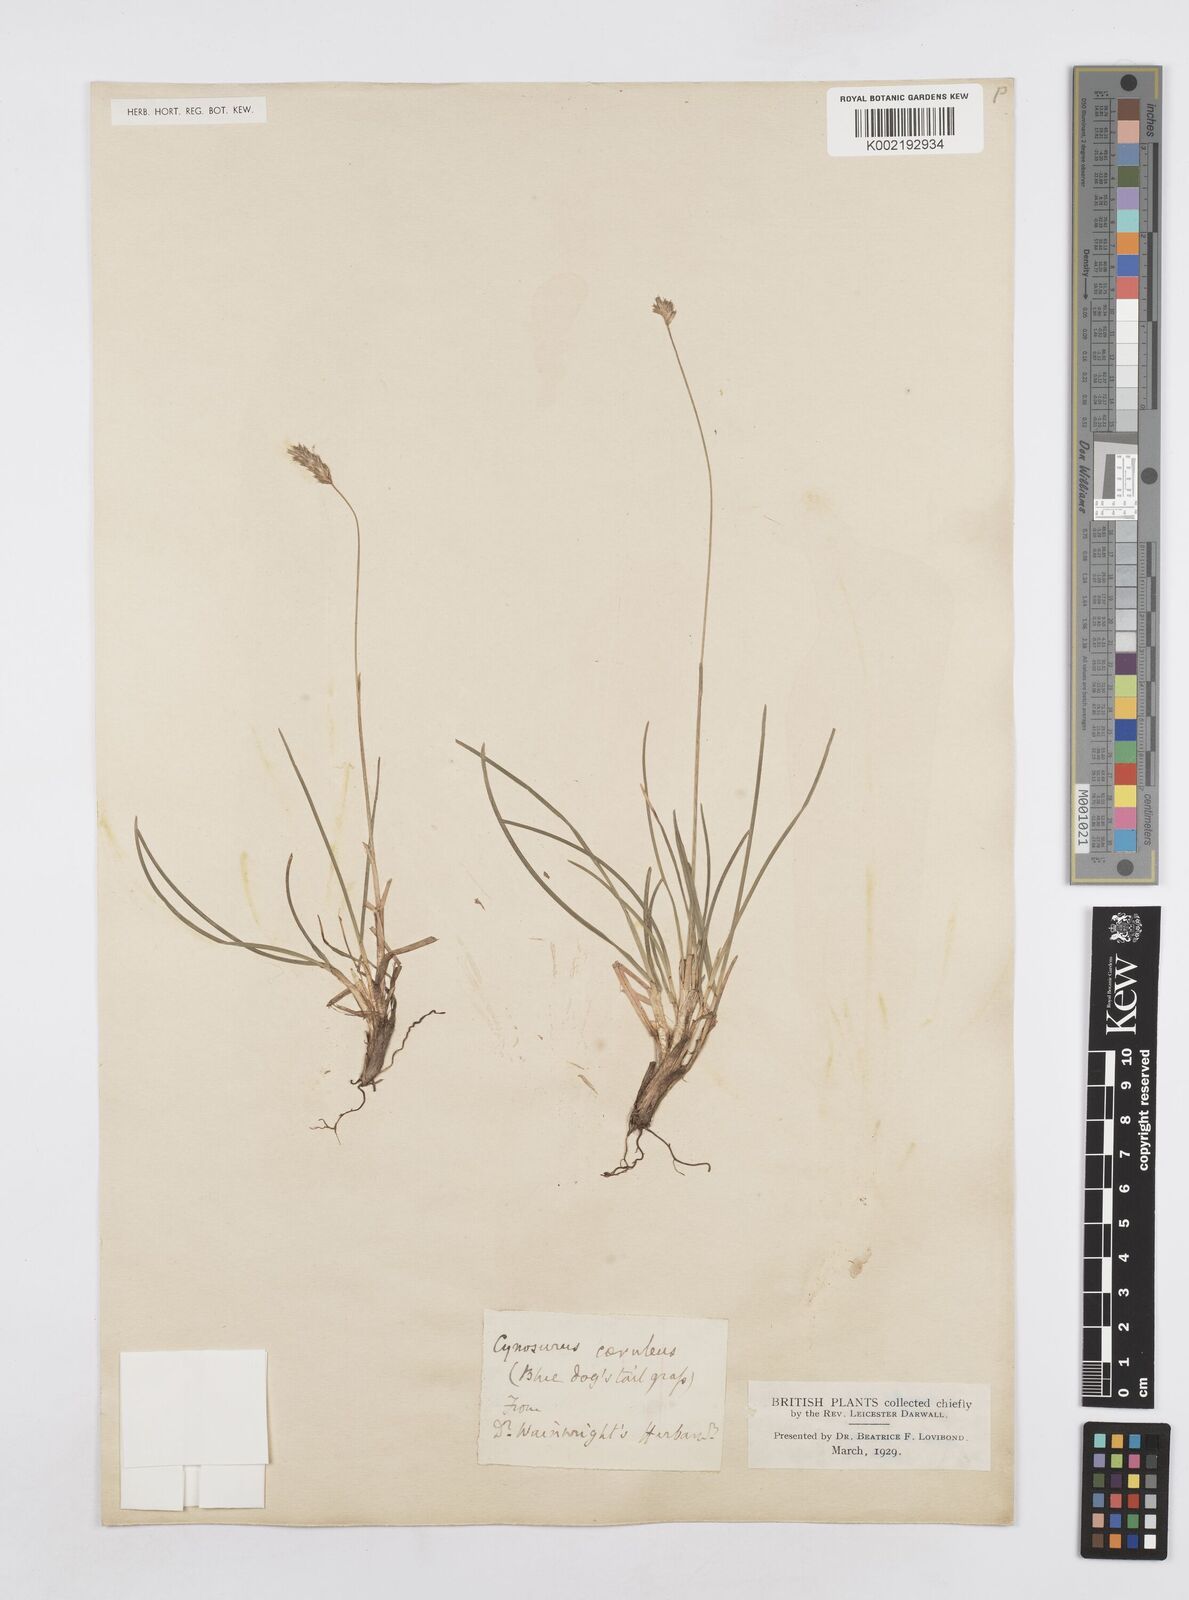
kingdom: Plantae
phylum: Tracheophyta
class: Liliopsida
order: Poales
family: Poaceae
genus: Sesleria
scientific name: Sesleria caerulea
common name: Blue moor-grass
